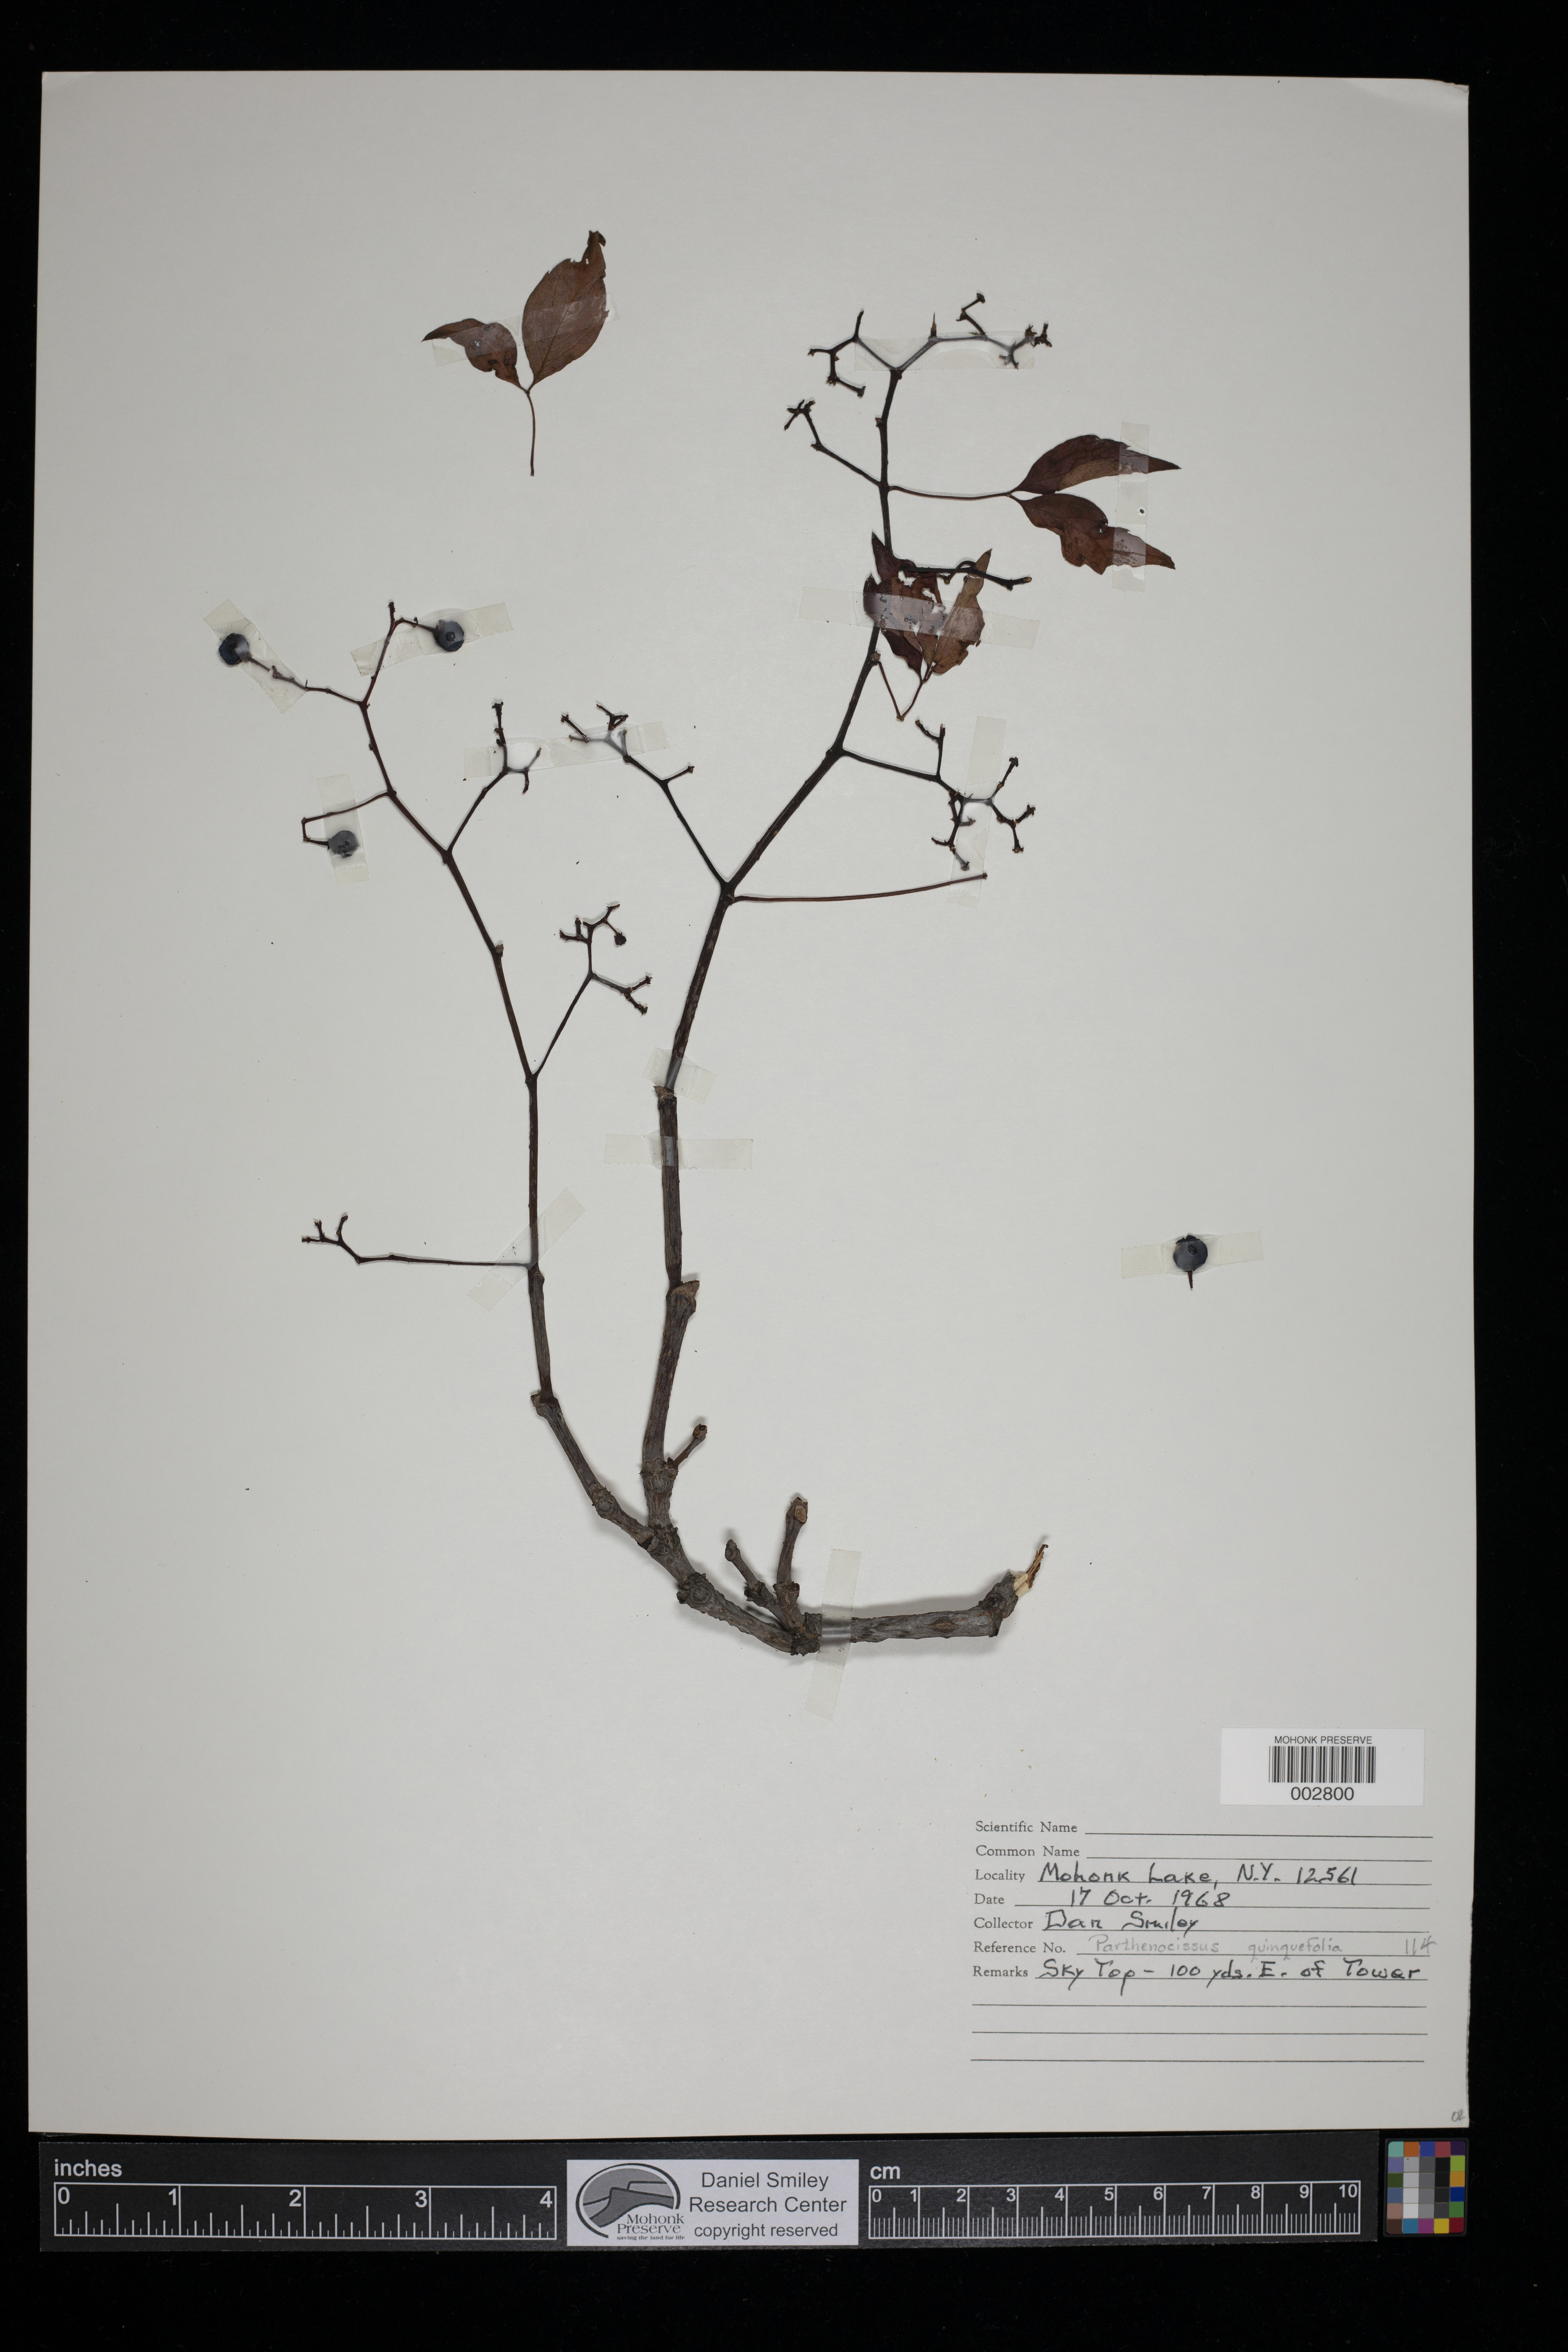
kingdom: Plantae
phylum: Tracheophyta
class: Magnoliopsida
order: Vitales
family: Vitaceae
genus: Parthenocissus
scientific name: Parthenocissus quinquefolia
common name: Virginia-creeper
